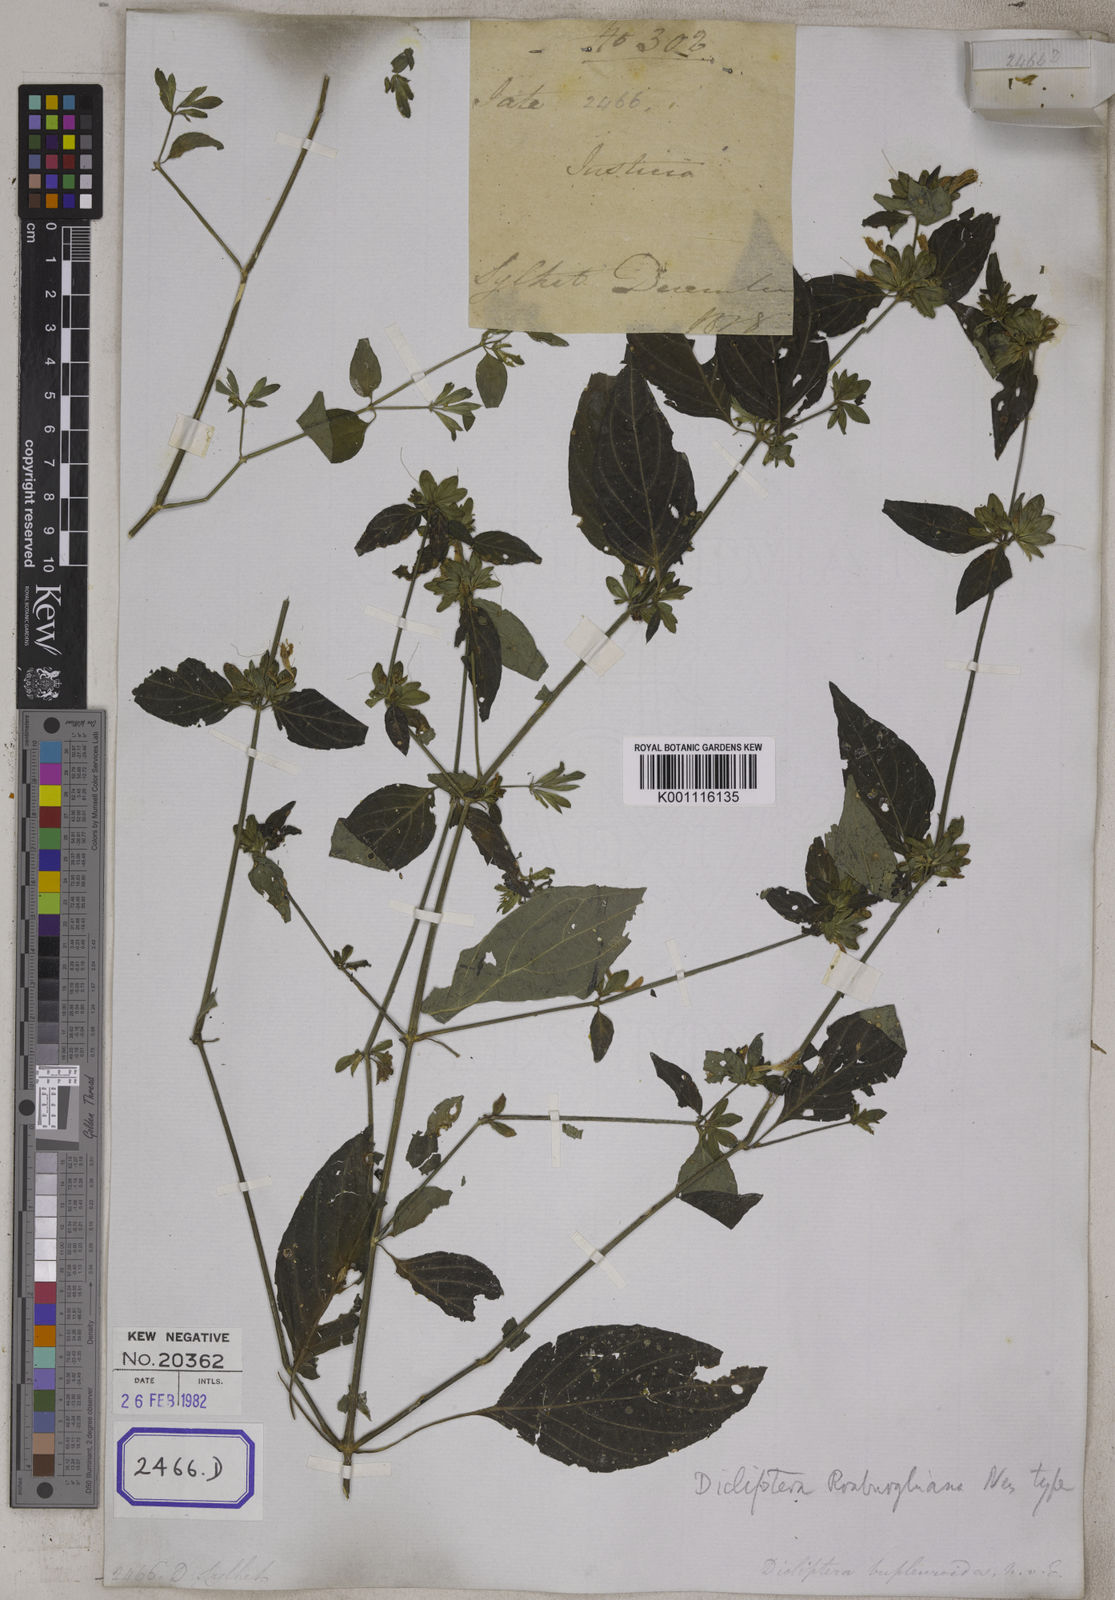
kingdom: Plantae
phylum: Tracheophyta
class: Magnoliopsida
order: Lamiales
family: Acanthaceae
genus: Dicliptera
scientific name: Dicliptera chinensis
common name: Chinese foldwing
